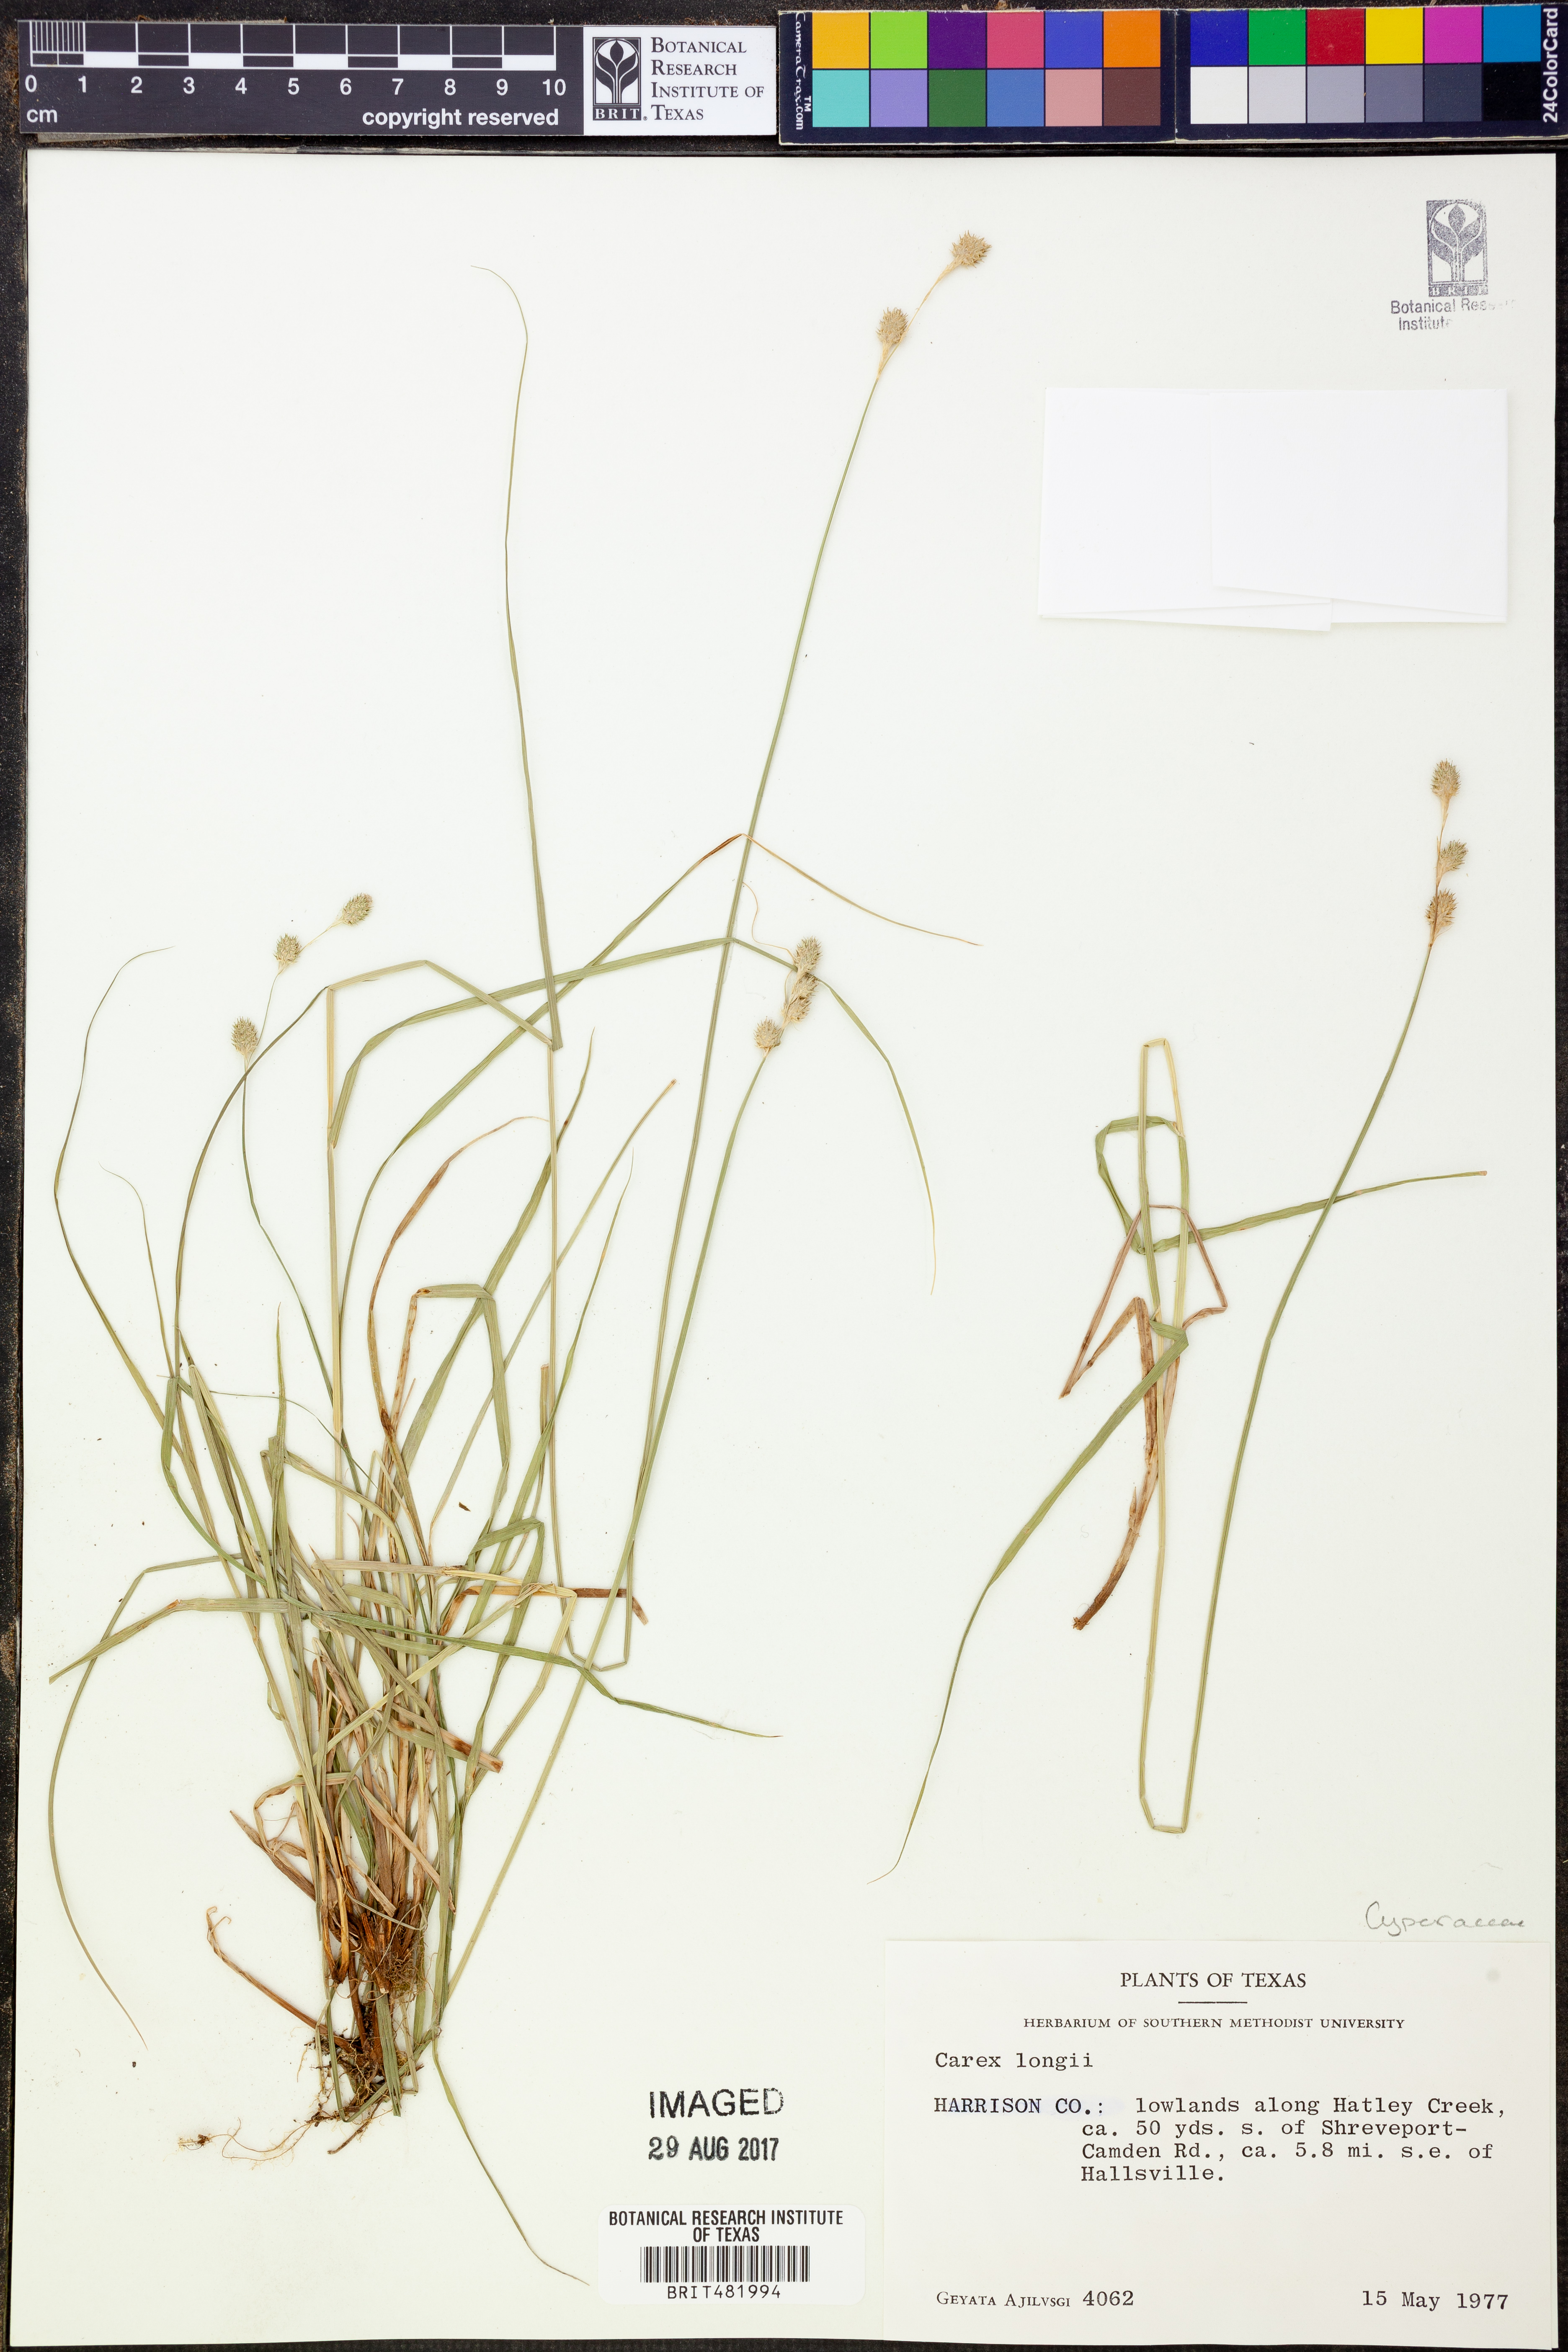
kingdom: Plantae
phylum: Tracheophyta
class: Liliopsida
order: Poales
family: Cyperaceae
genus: Carex
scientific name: Carex longii
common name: Long's sedge
